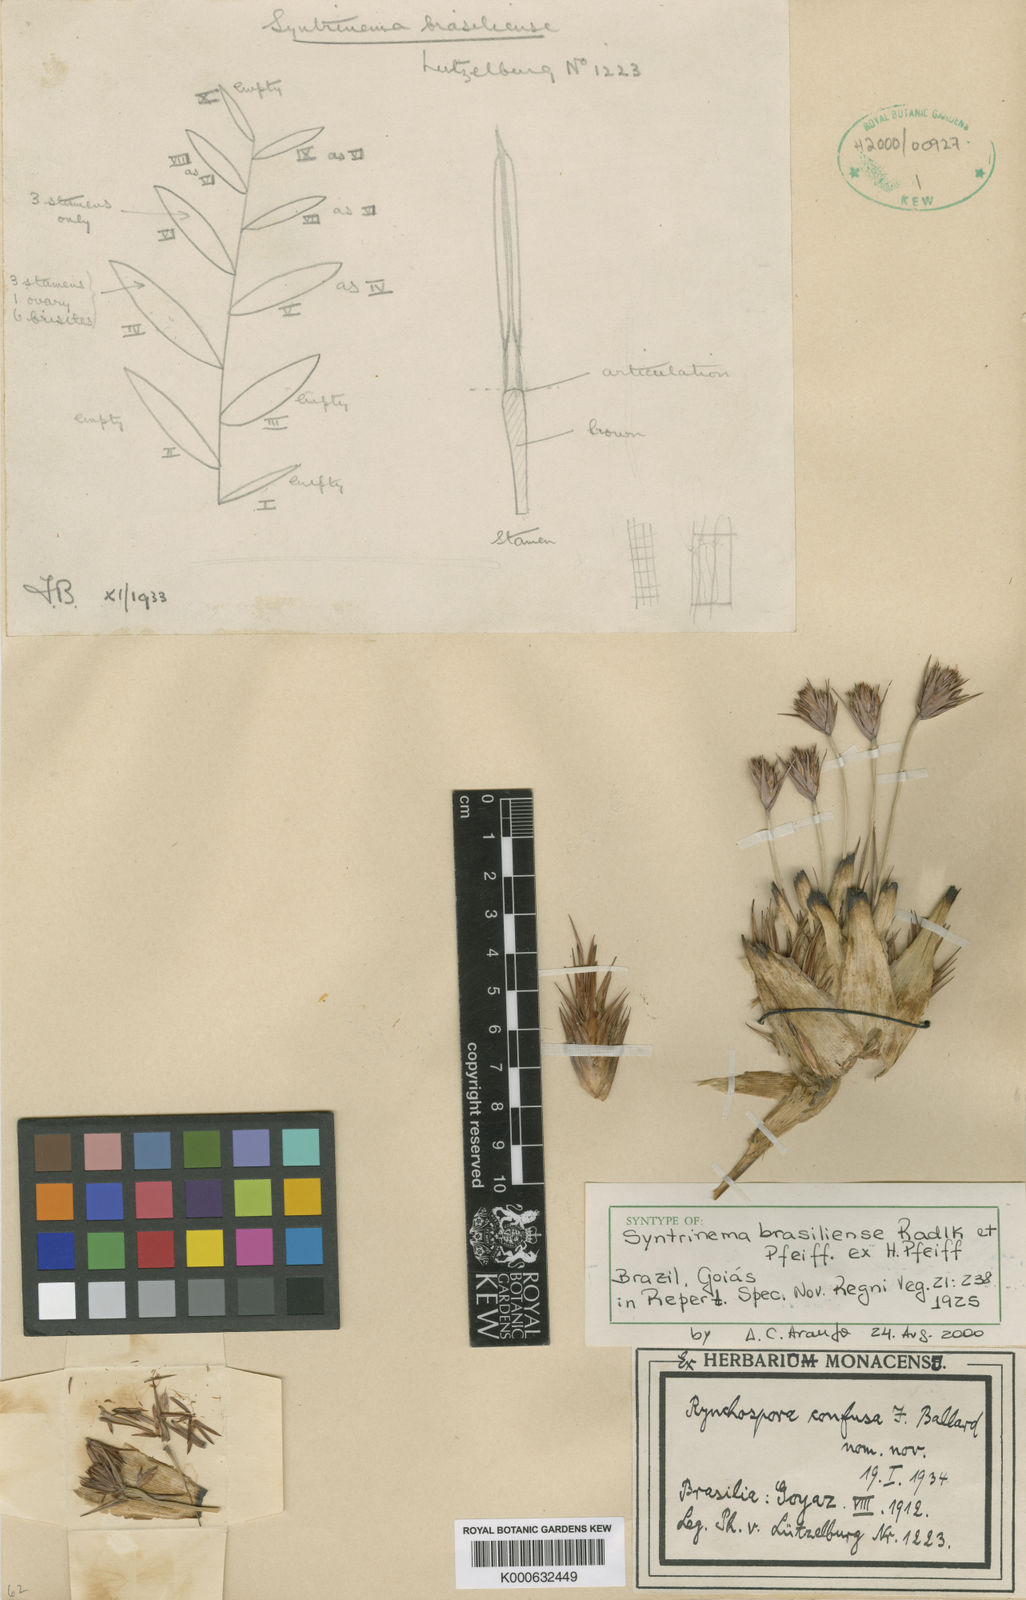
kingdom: Plantae
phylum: Tracheophyta
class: Liliopsida
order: Poales
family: Cyperaceae
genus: Rhynchospora
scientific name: Rhynchospora confusa
